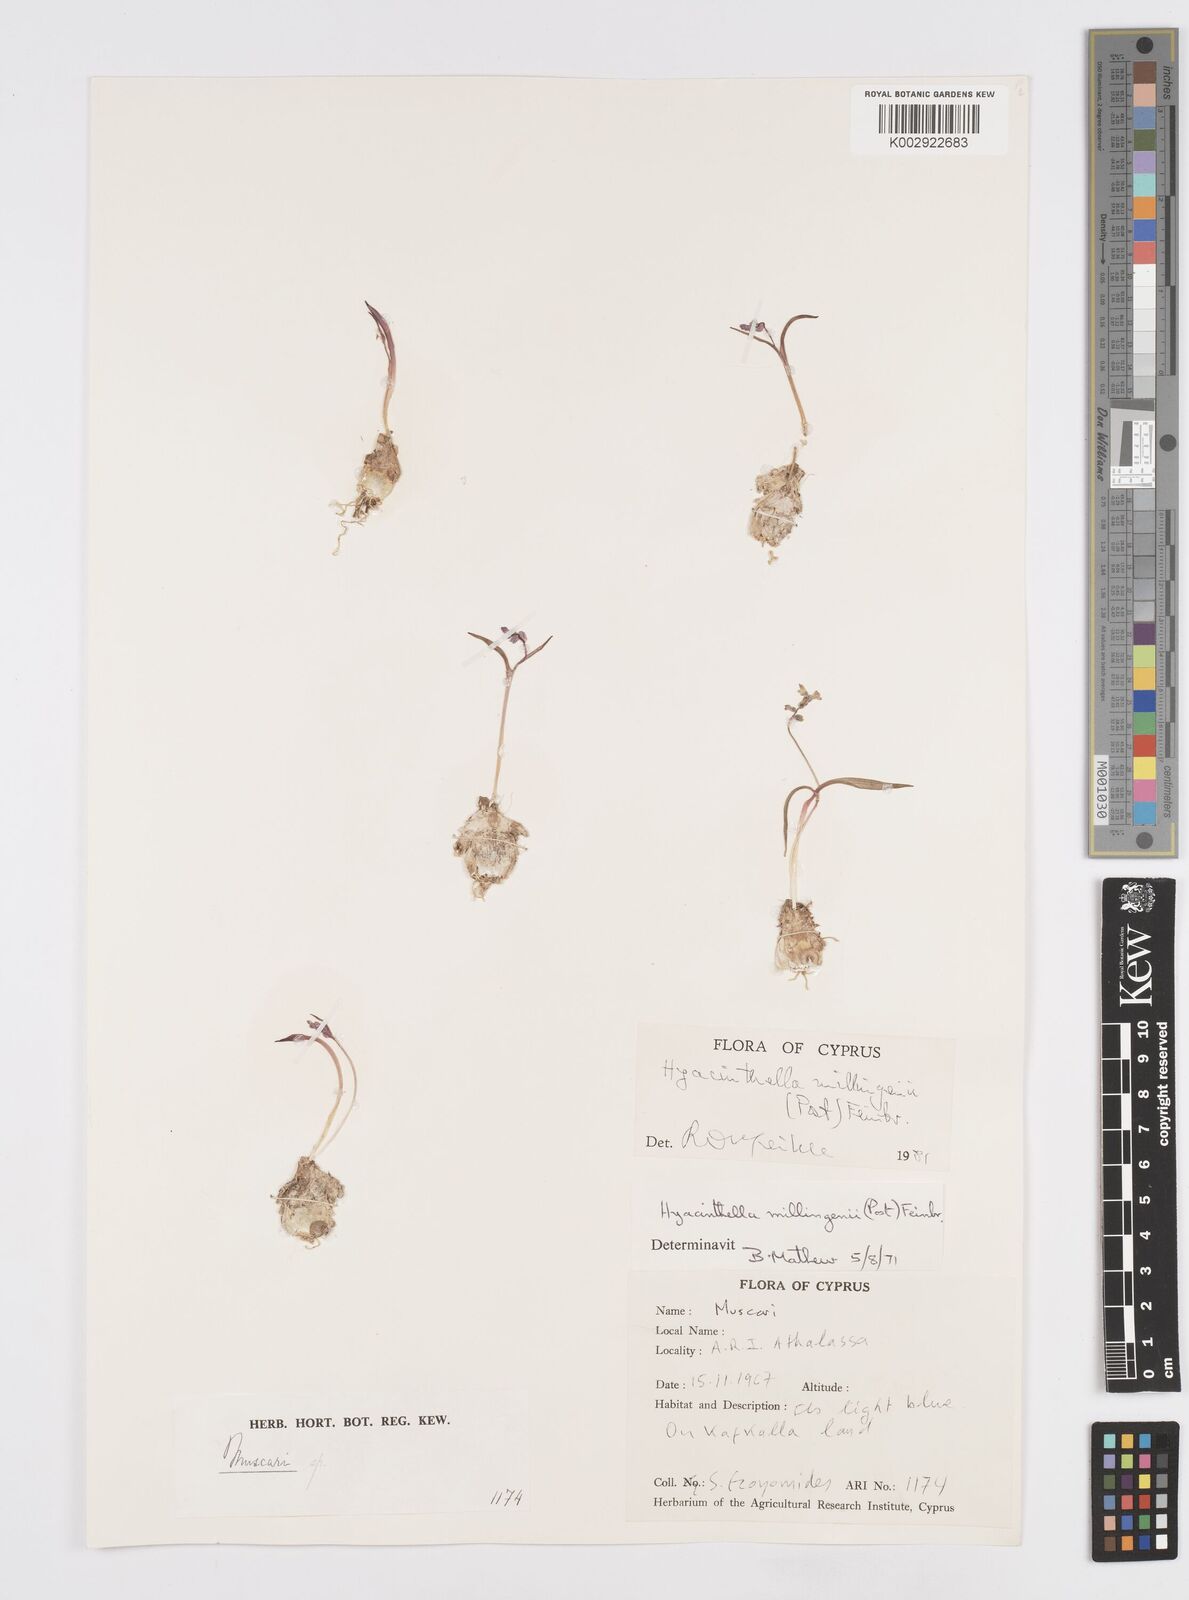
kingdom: Plantae
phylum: Tracheophyta
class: Liliopsida
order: Asparagales
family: Asparagaceae
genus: Hyacinthella
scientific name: Hyacinthella millingenii
